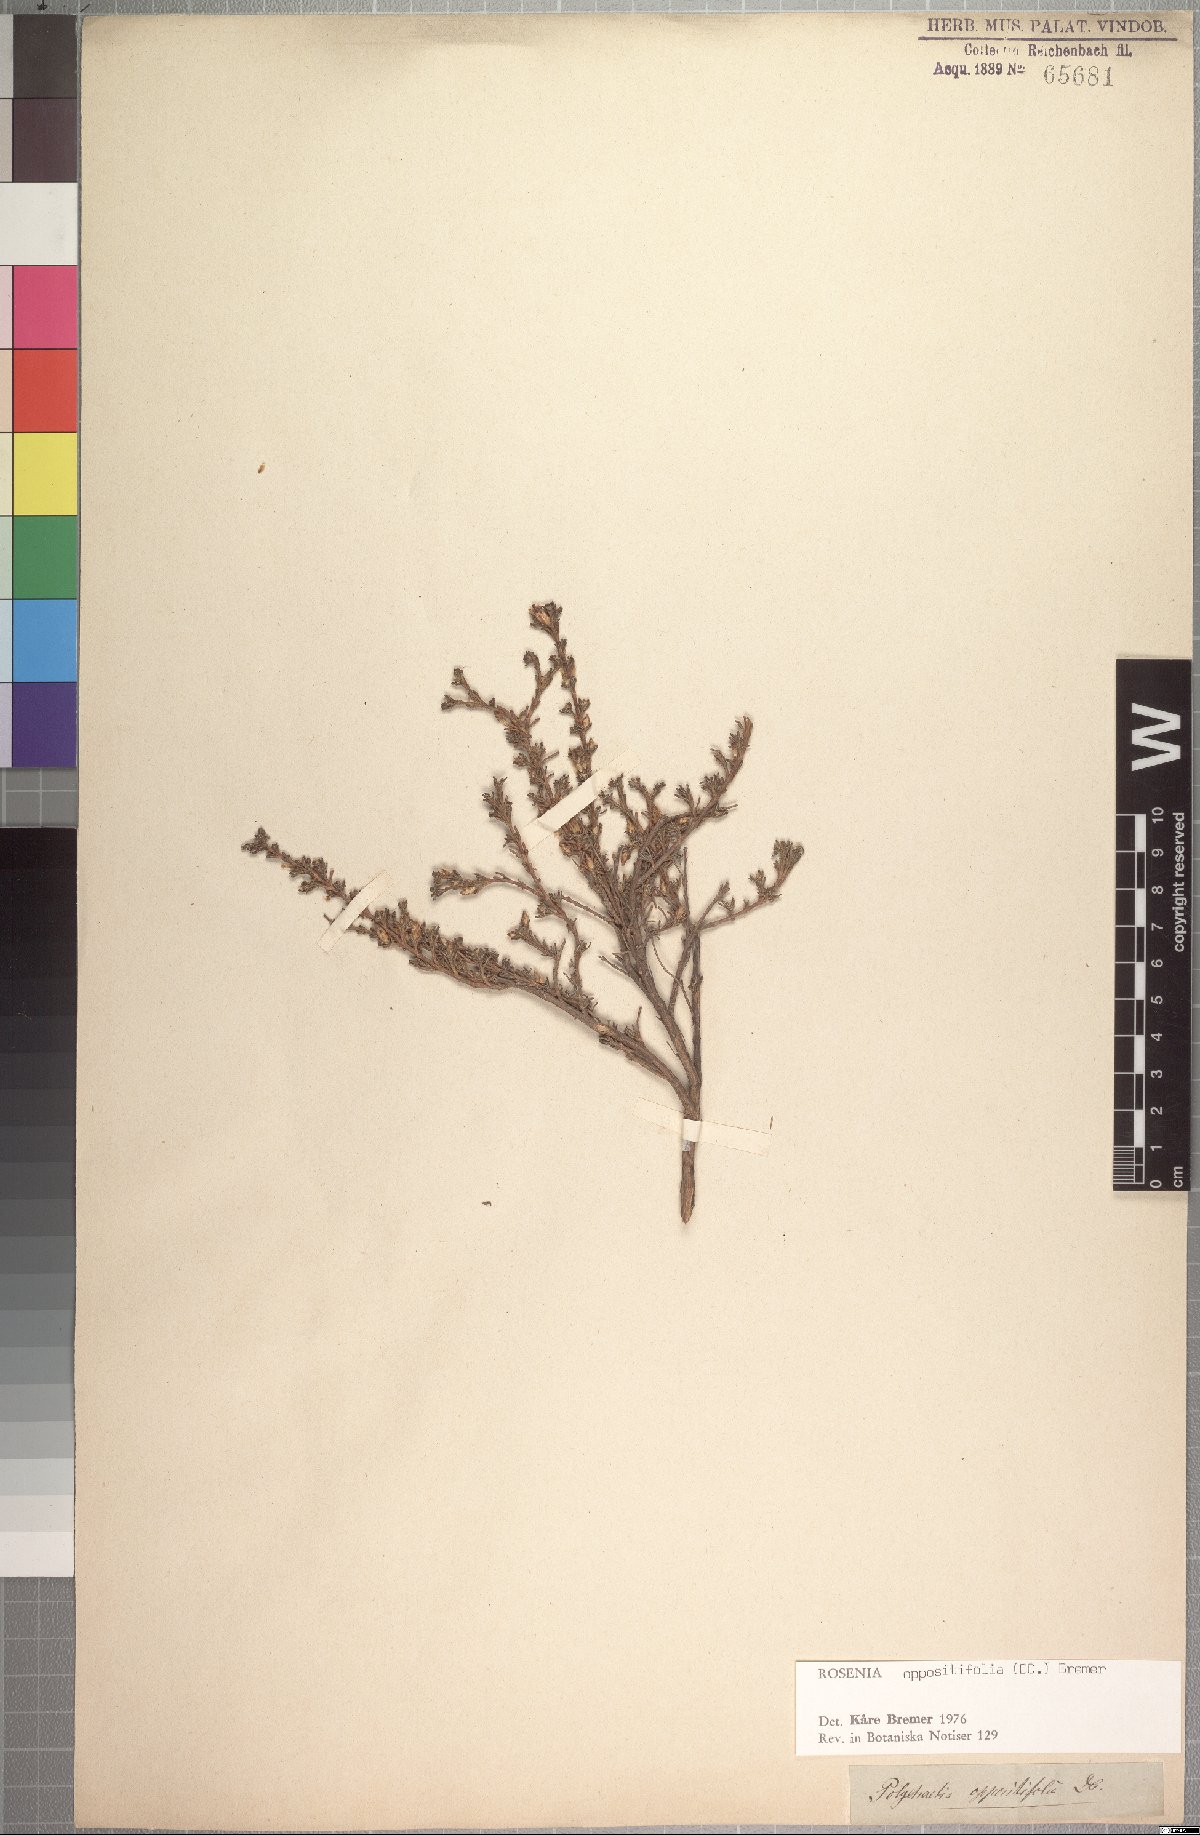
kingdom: Plantae
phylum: Tracheophyta
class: Magnoliopsida
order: Asterales
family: Asteraceae
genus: Oedera
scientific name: Oedera oppositifolia
